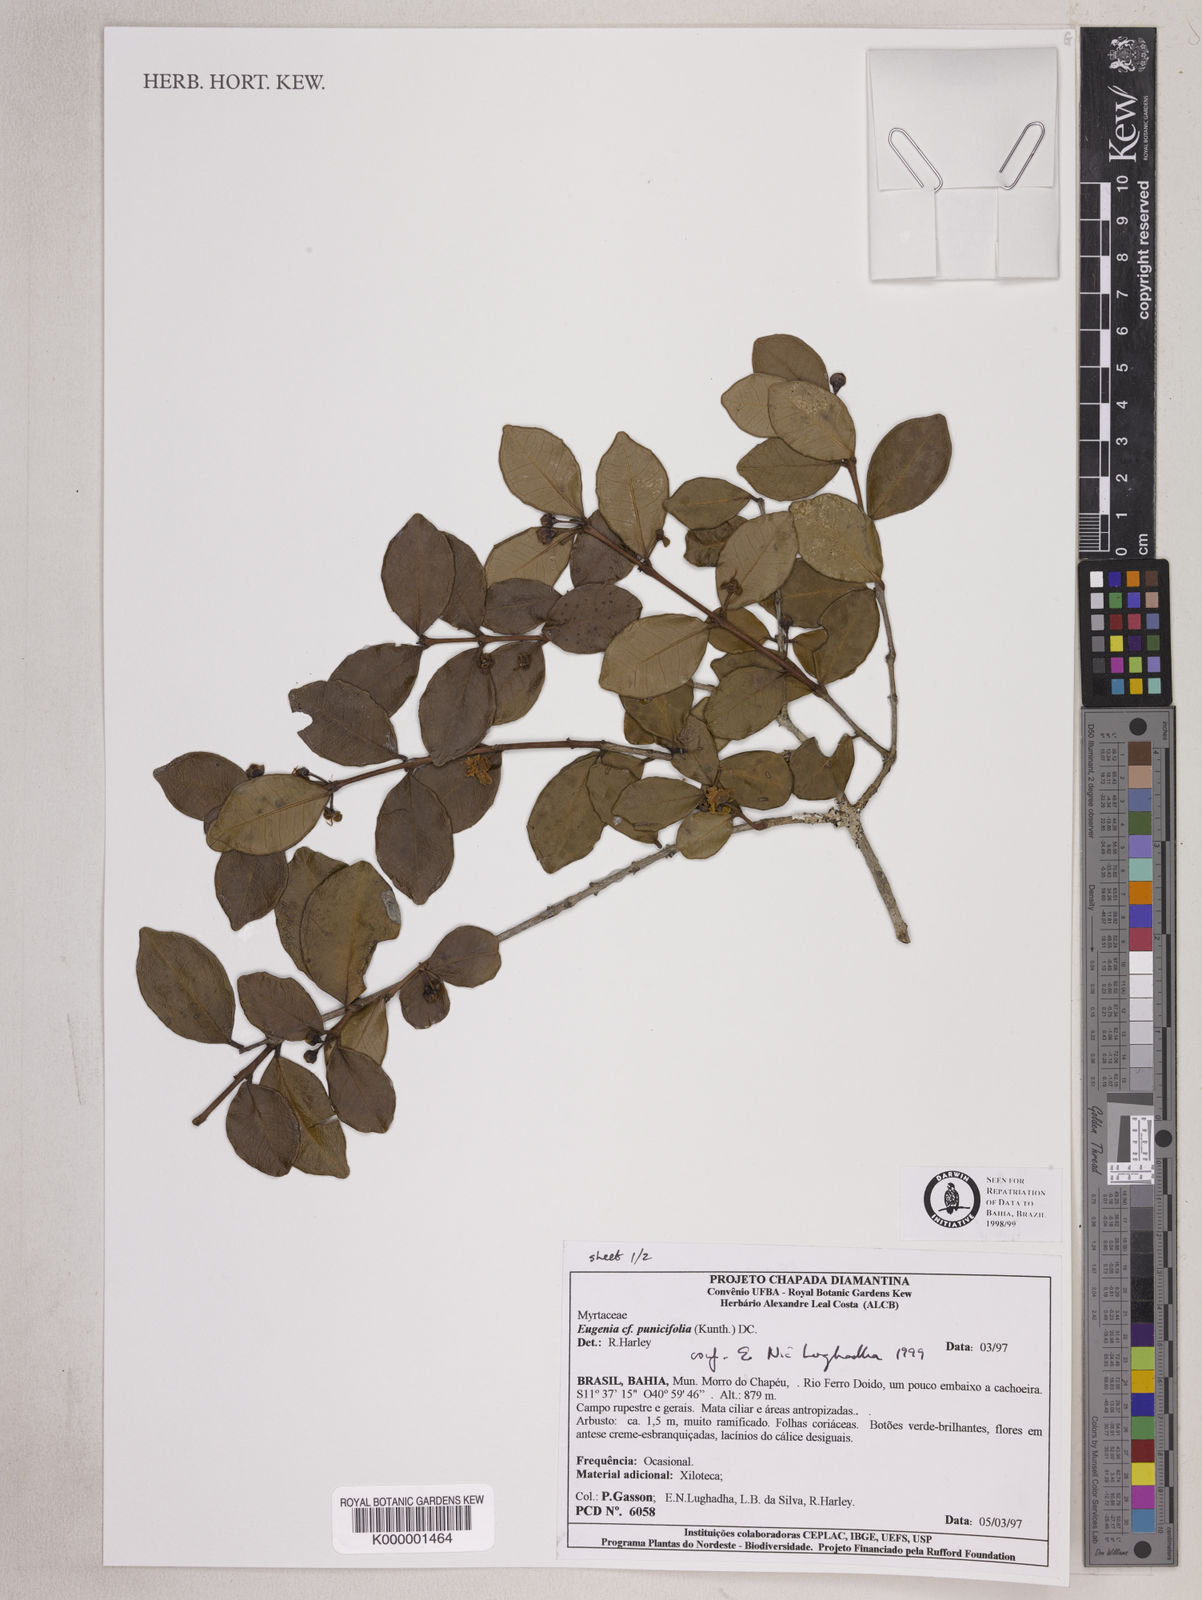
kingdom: Plantae
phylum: Tracheophyta
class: Magnoliopsida
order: Myrtales
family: Myrtaceae
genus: Eugenia
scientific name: Eugenia punicifolia
